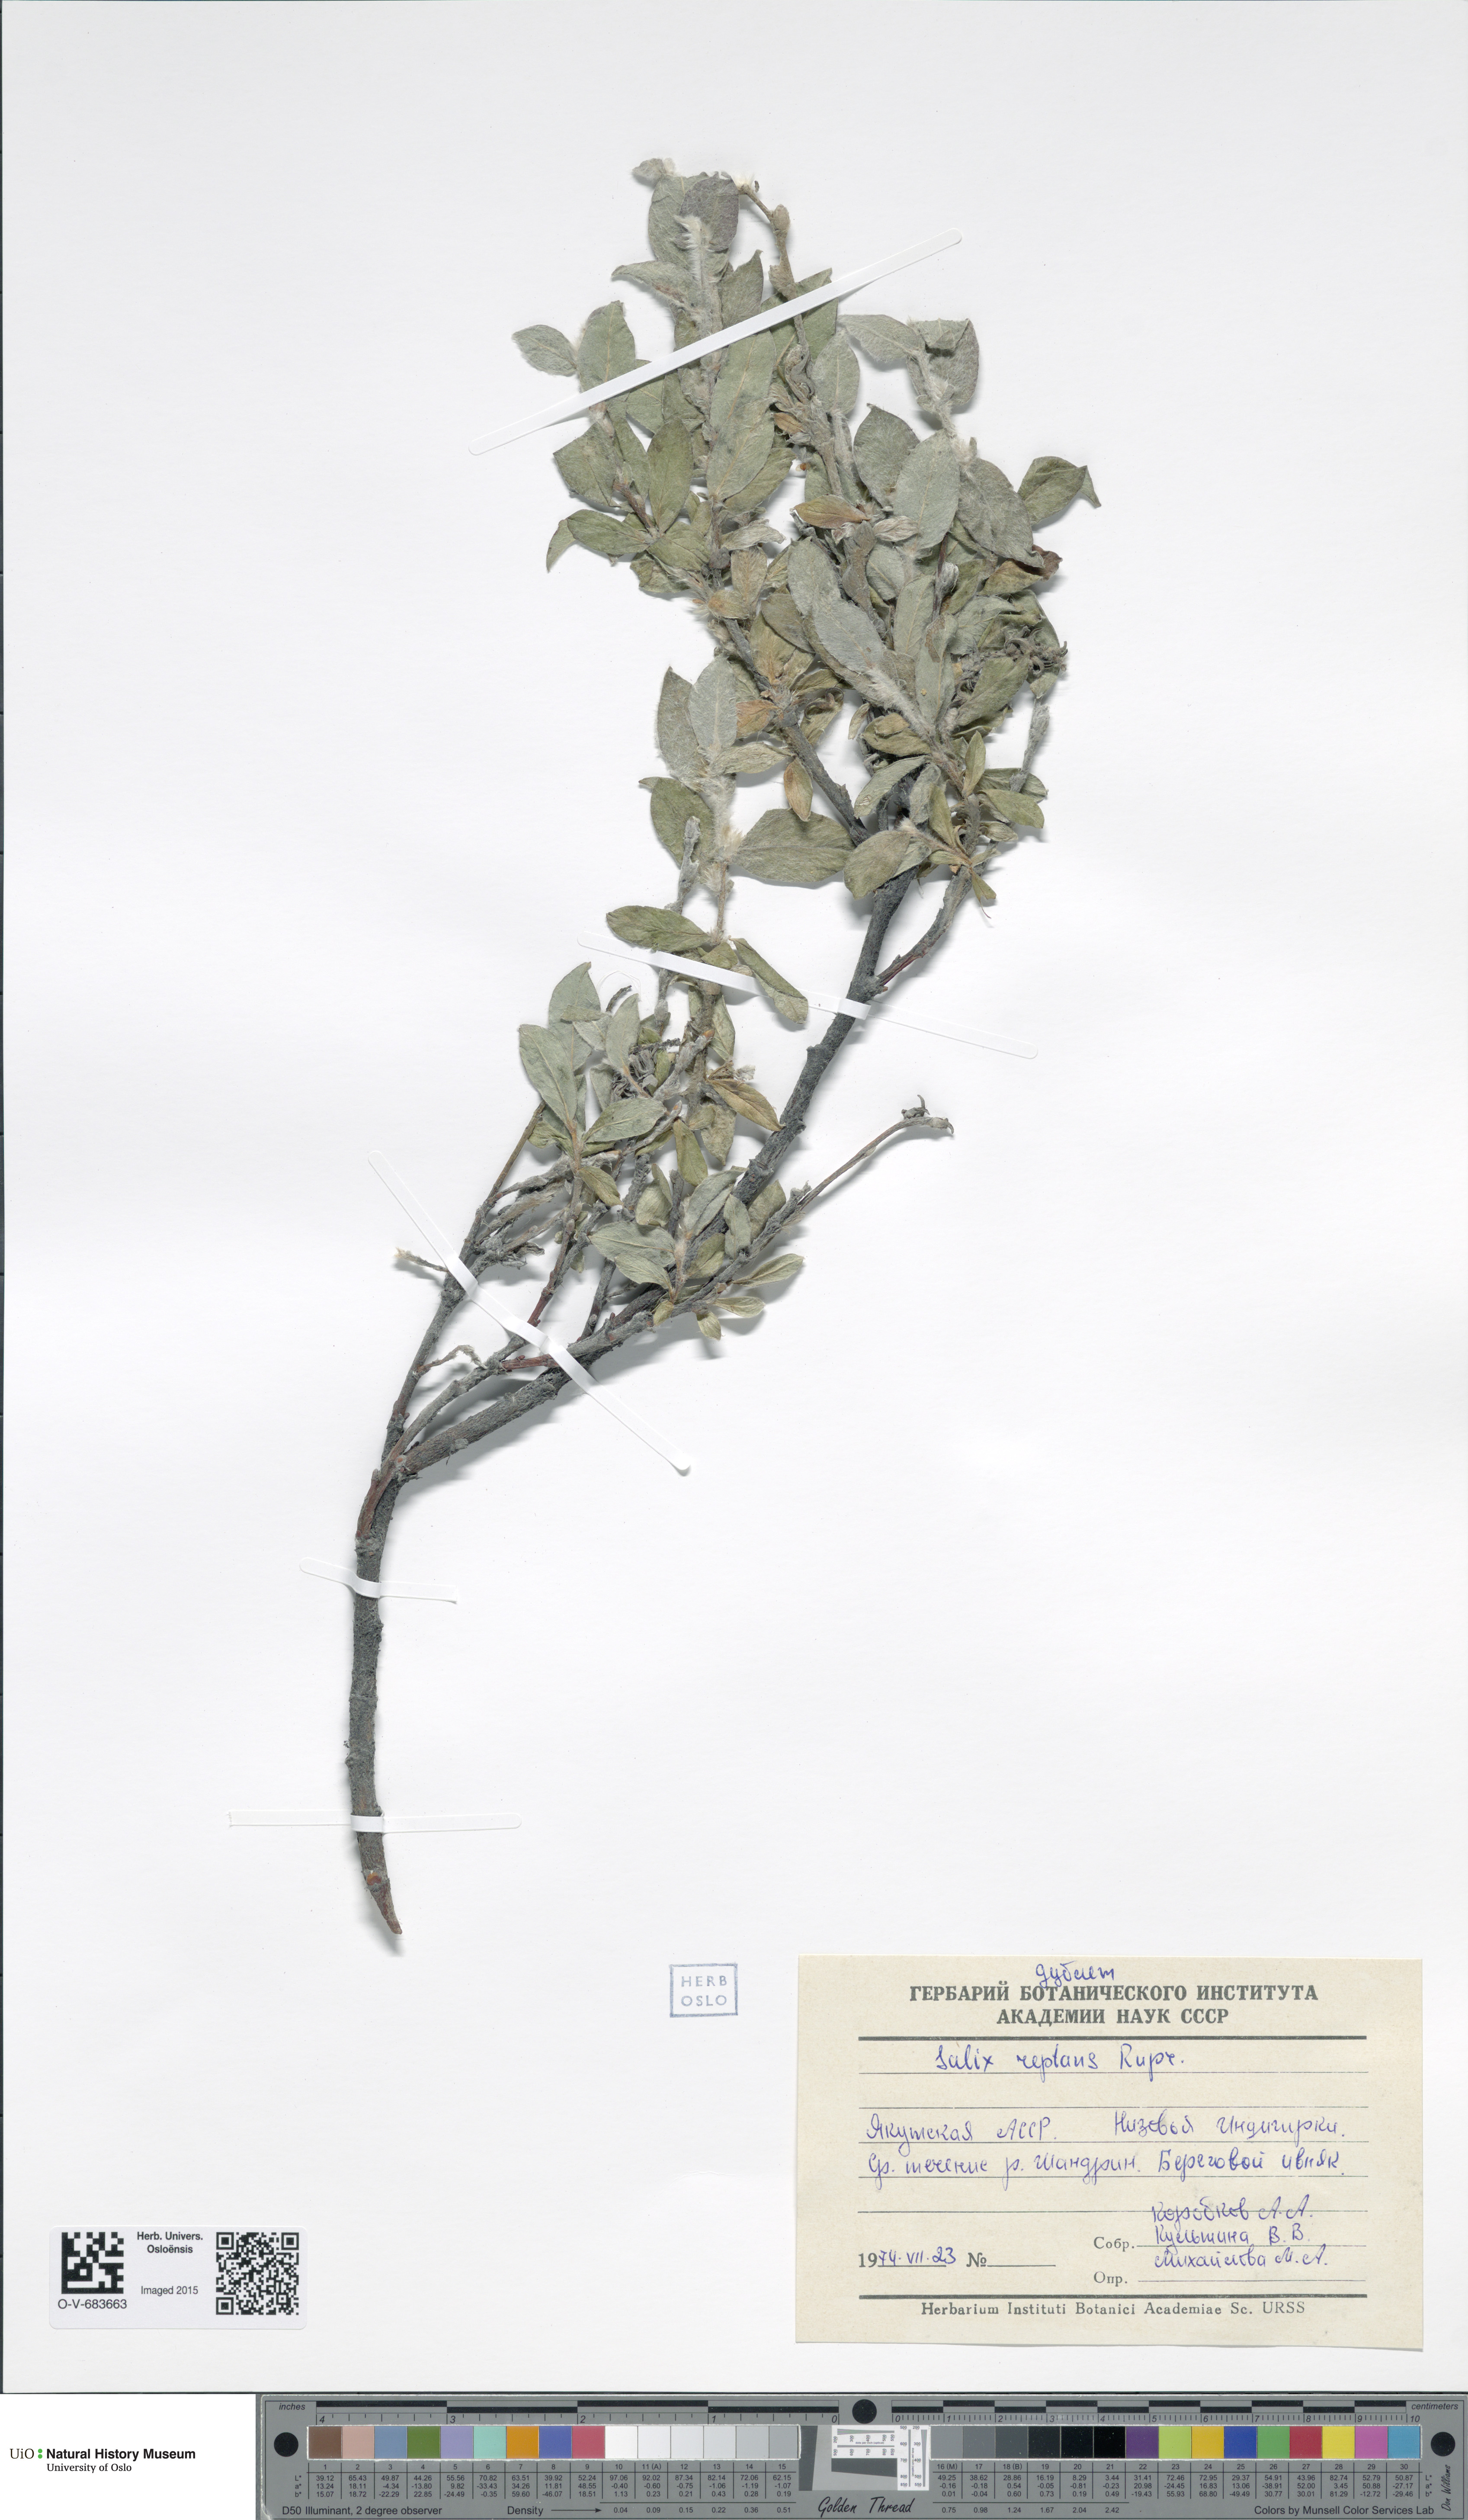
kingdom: Plantae
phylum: Tracheophyta
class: Magnoliopsida
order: Malpighiales
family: Salicaceae
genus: Salix
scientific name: Salix reptans
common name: Arctic creeping willow
